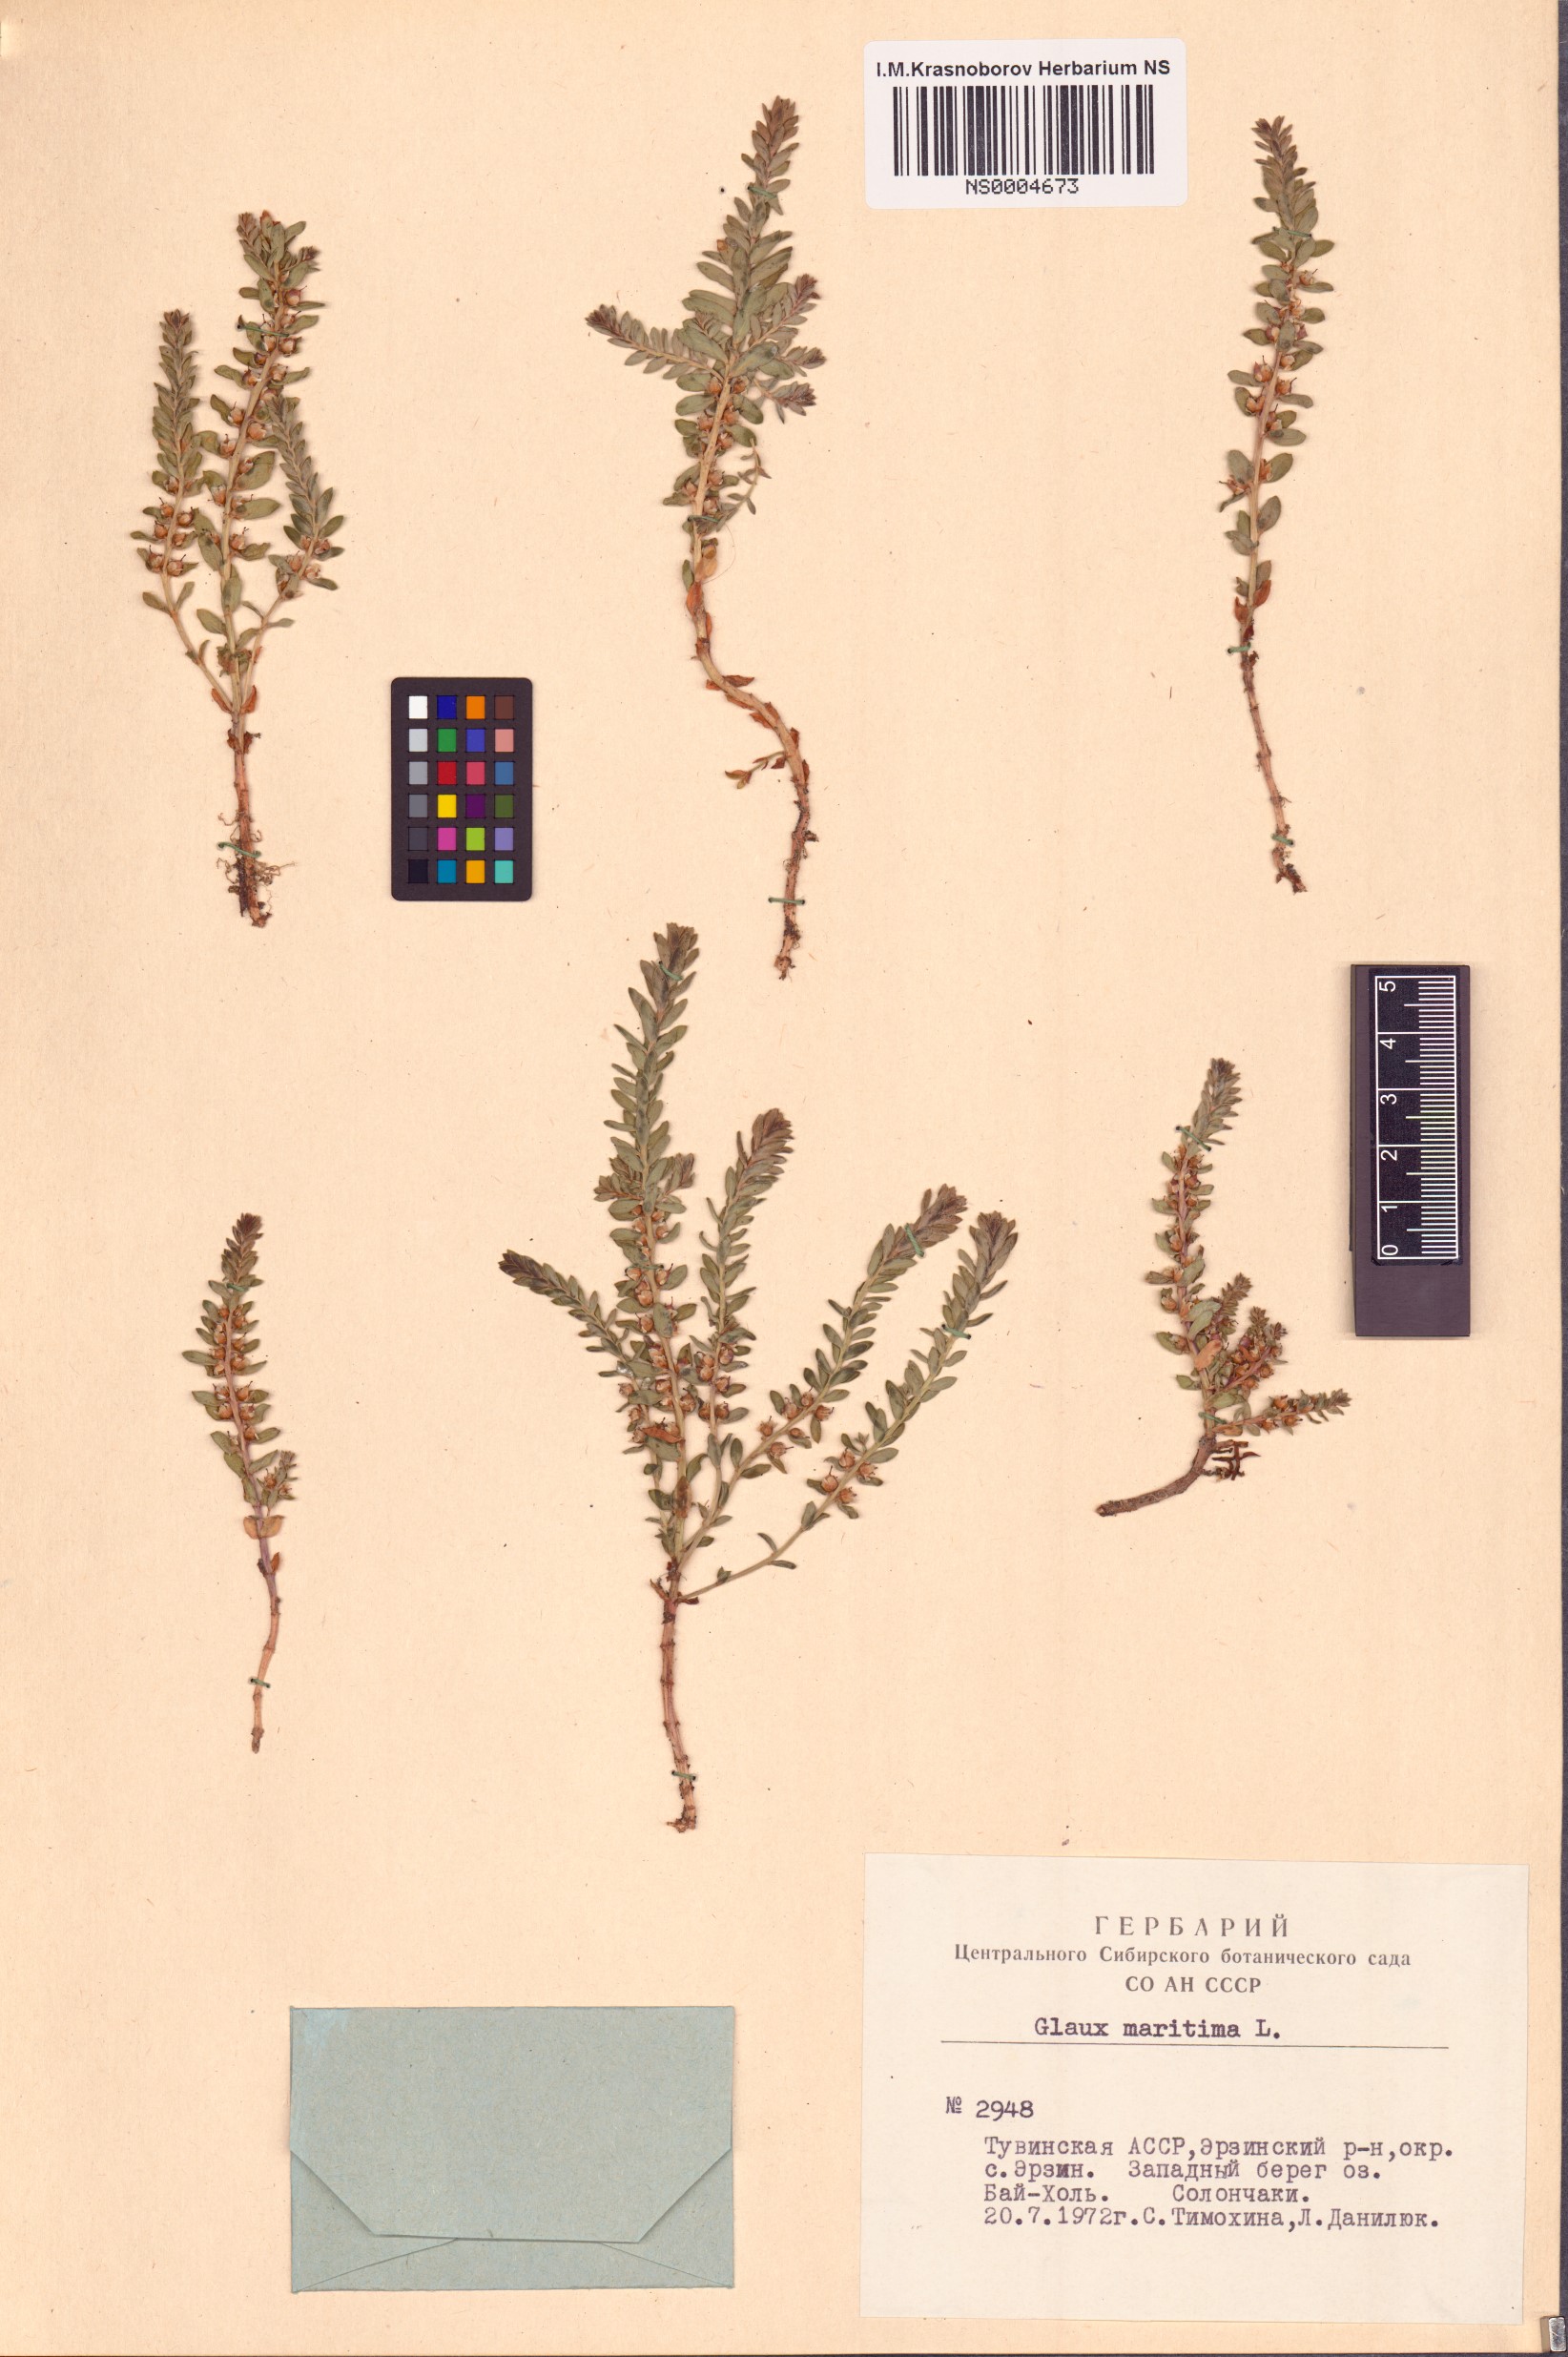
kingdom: Plantae
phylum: Tracheophyta
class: Magnoliopsida
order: Ericales
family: Primulaceae
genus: Lysimachia
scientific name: Lysimachia maritima
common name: Sea milkwort
